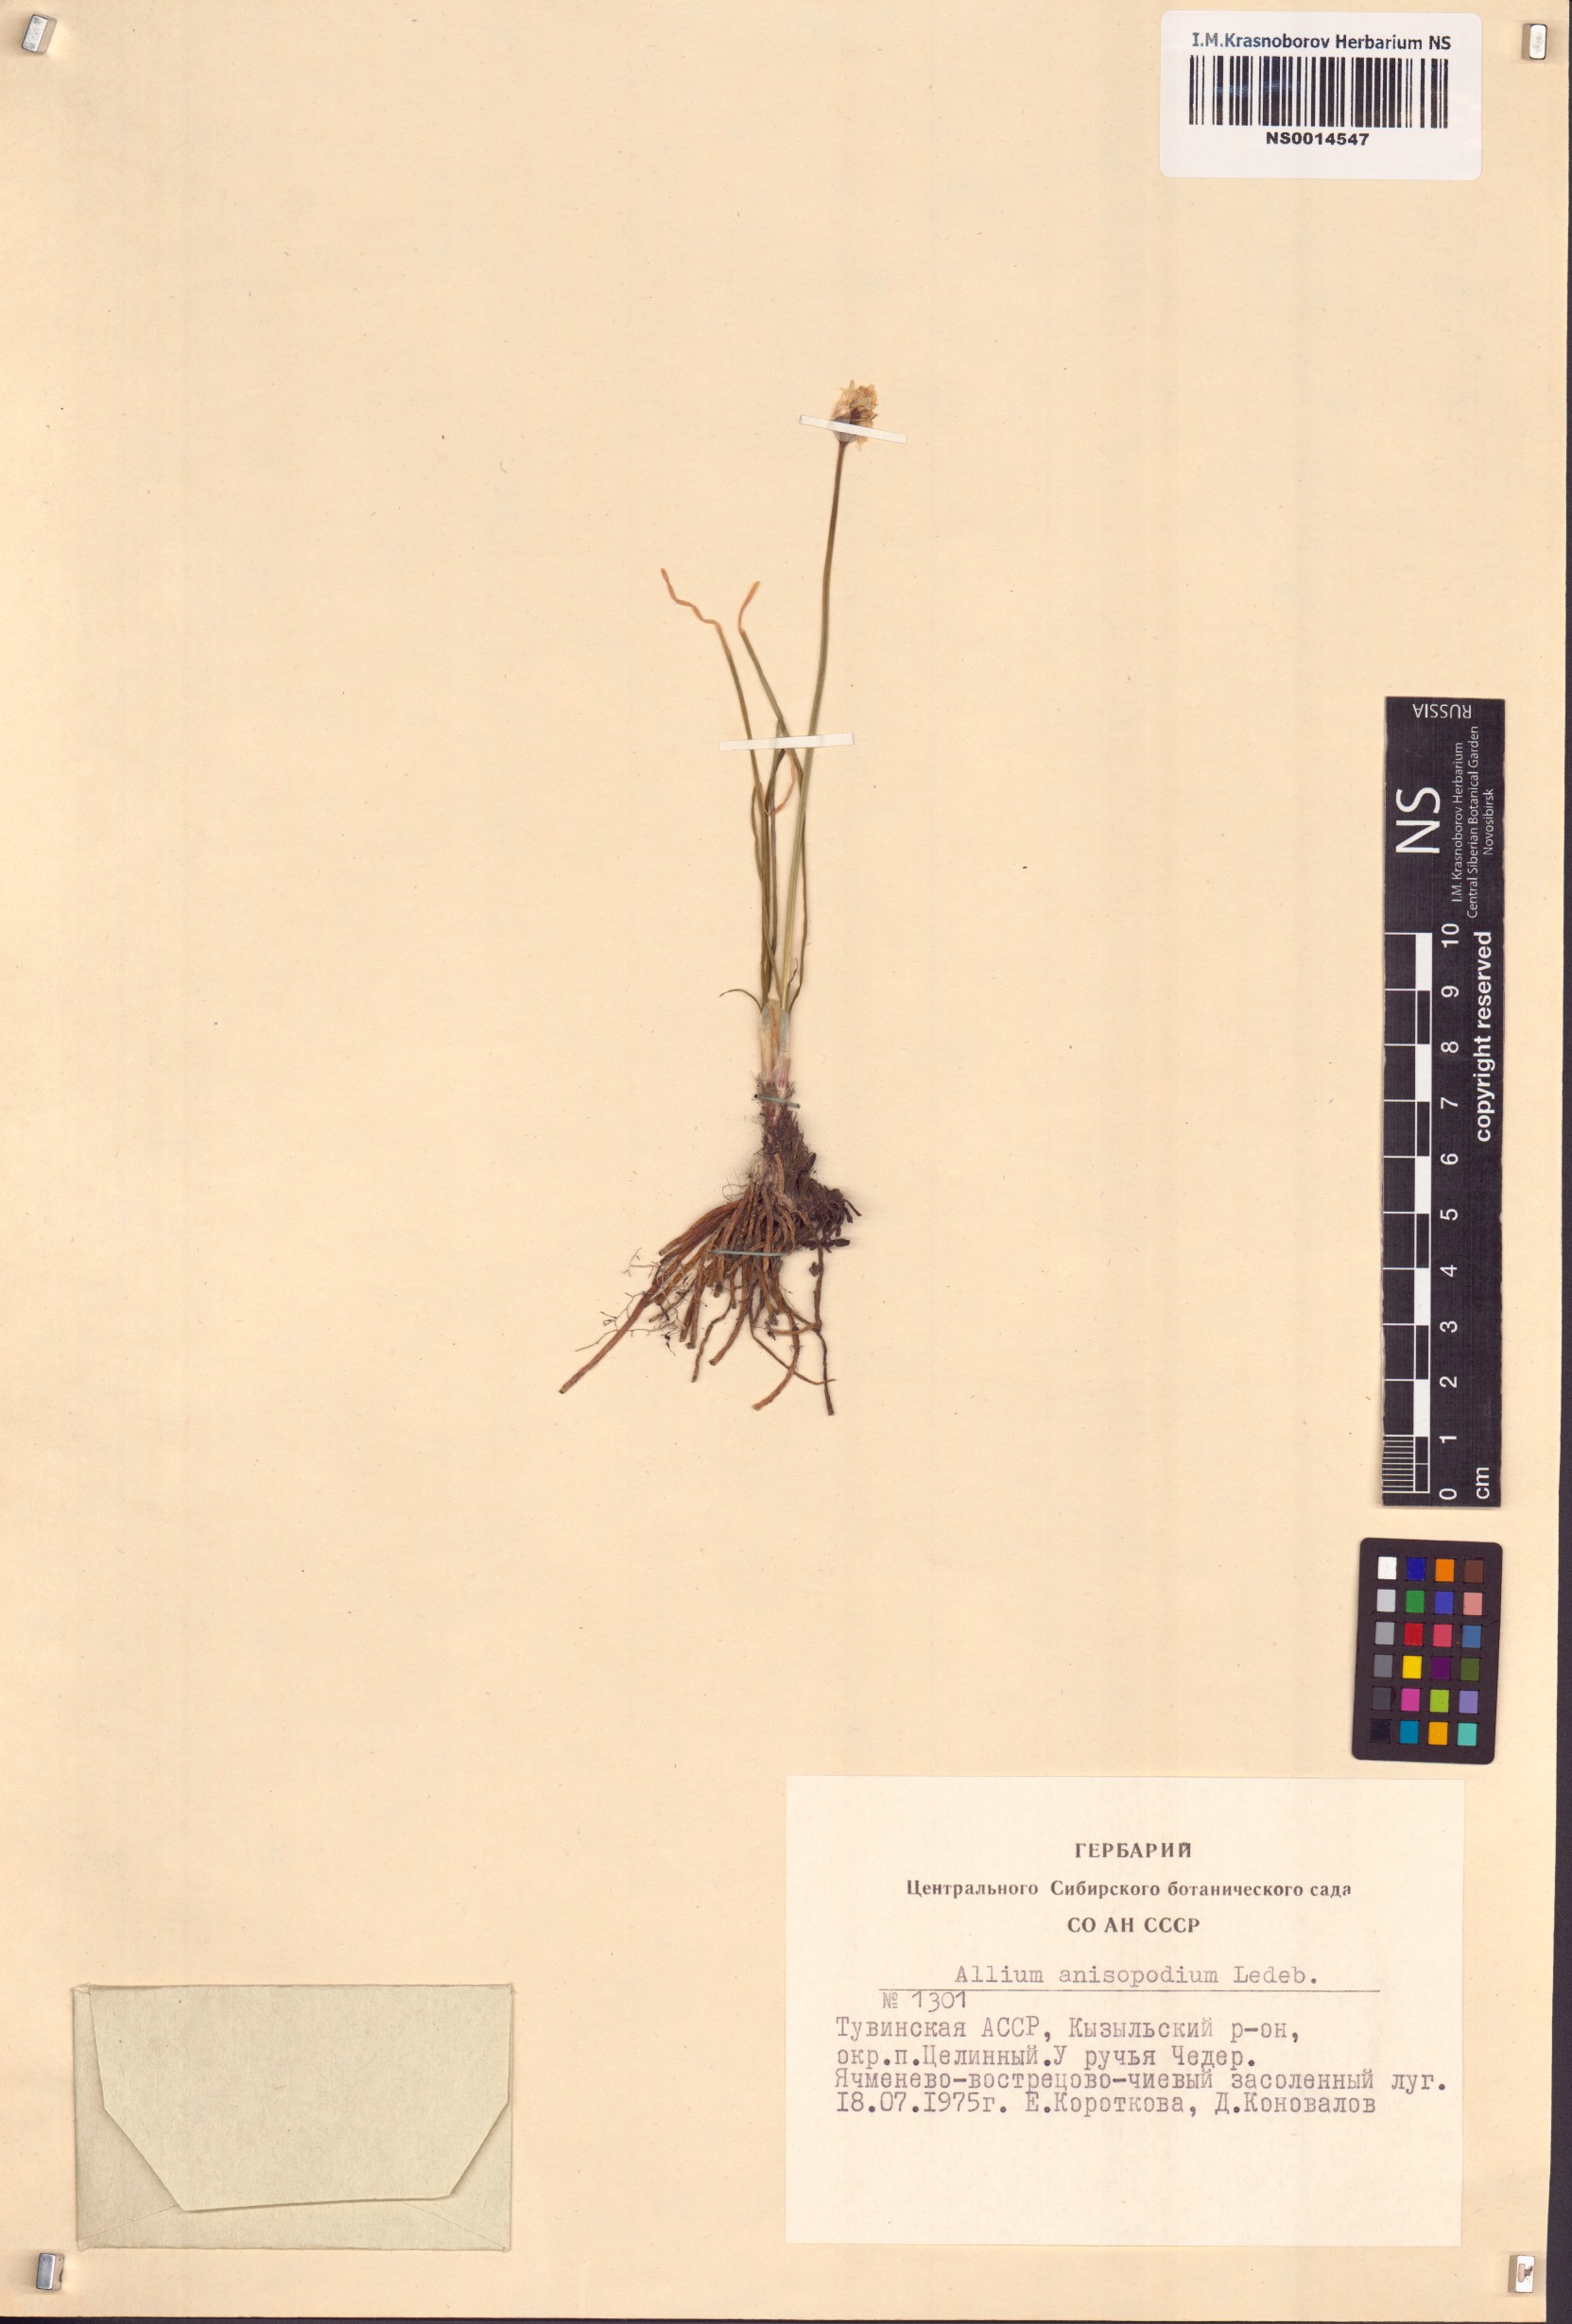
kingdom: Plantae
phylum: Tracheophyta
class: Liliopsida
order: Asparagales
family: Amaryllidaceae
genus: Allium
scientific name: Allium anisopodium
